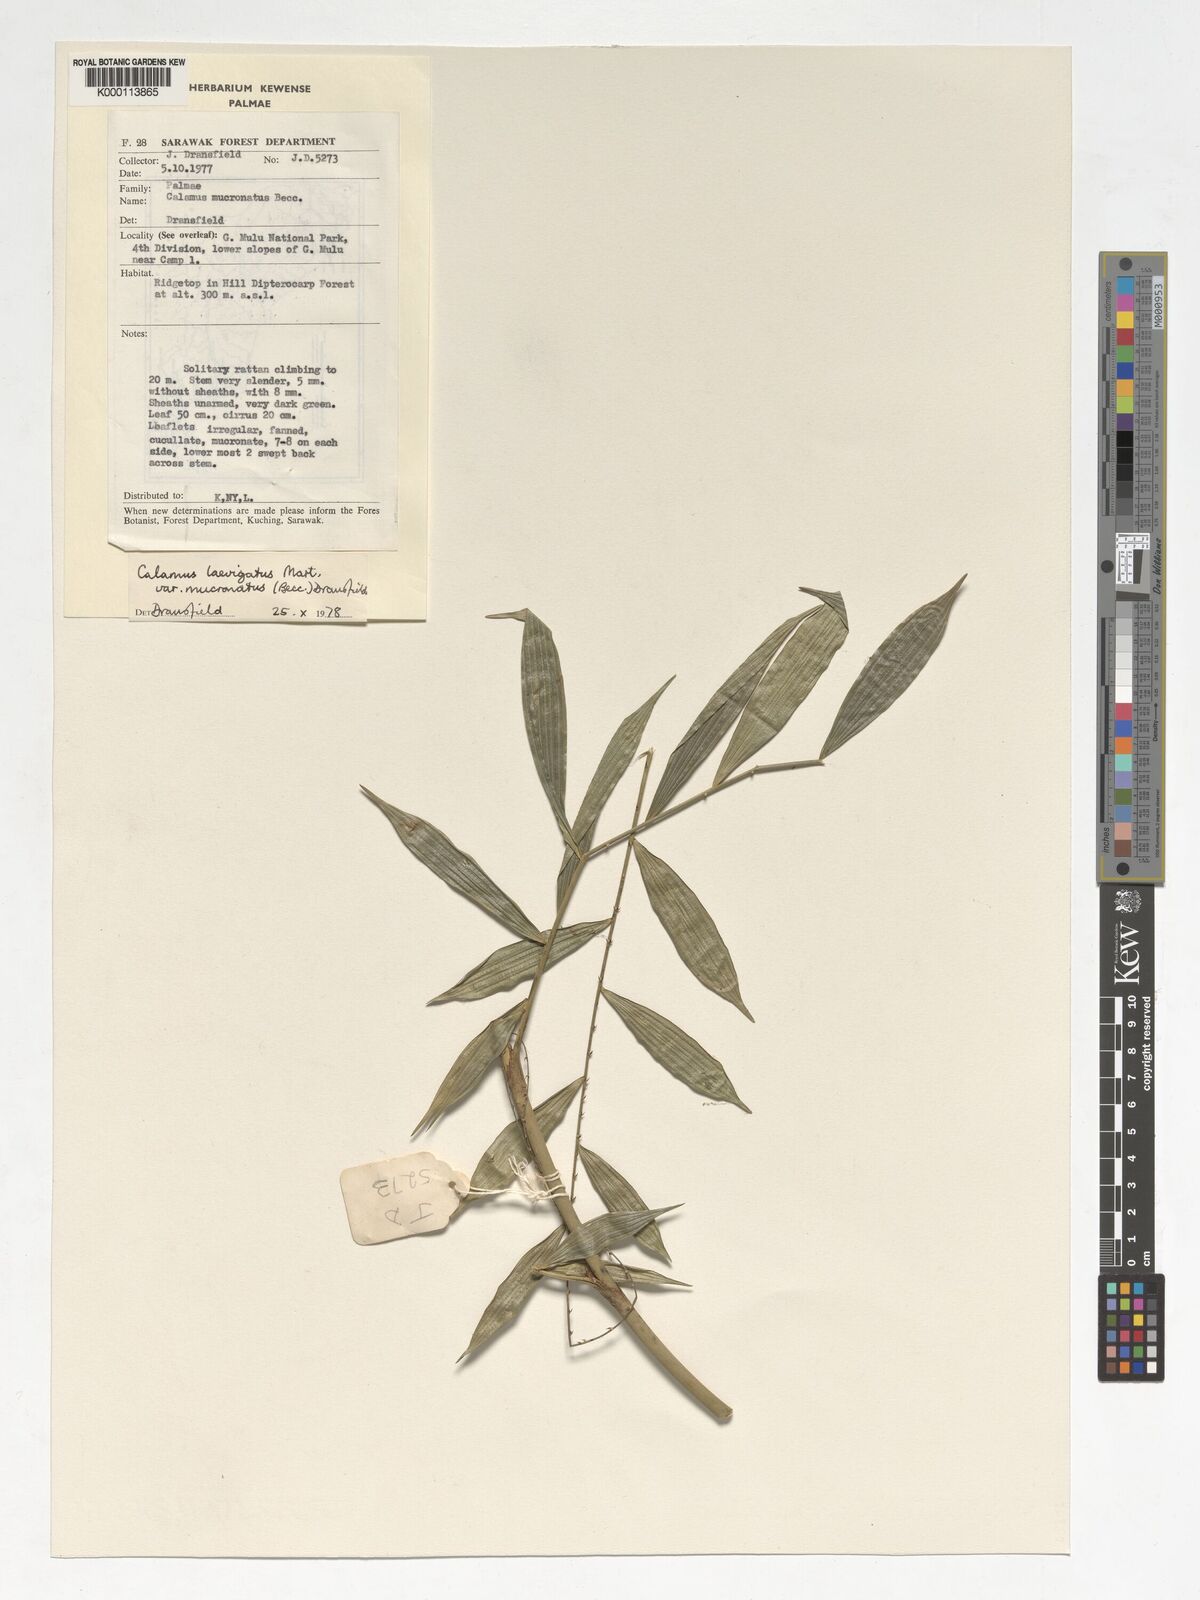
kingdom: Plantae
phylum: Tracheophyta
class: Liliopsida
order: Arecales
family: Arecaceae
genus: Calamus
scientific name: Calamus plicatus
